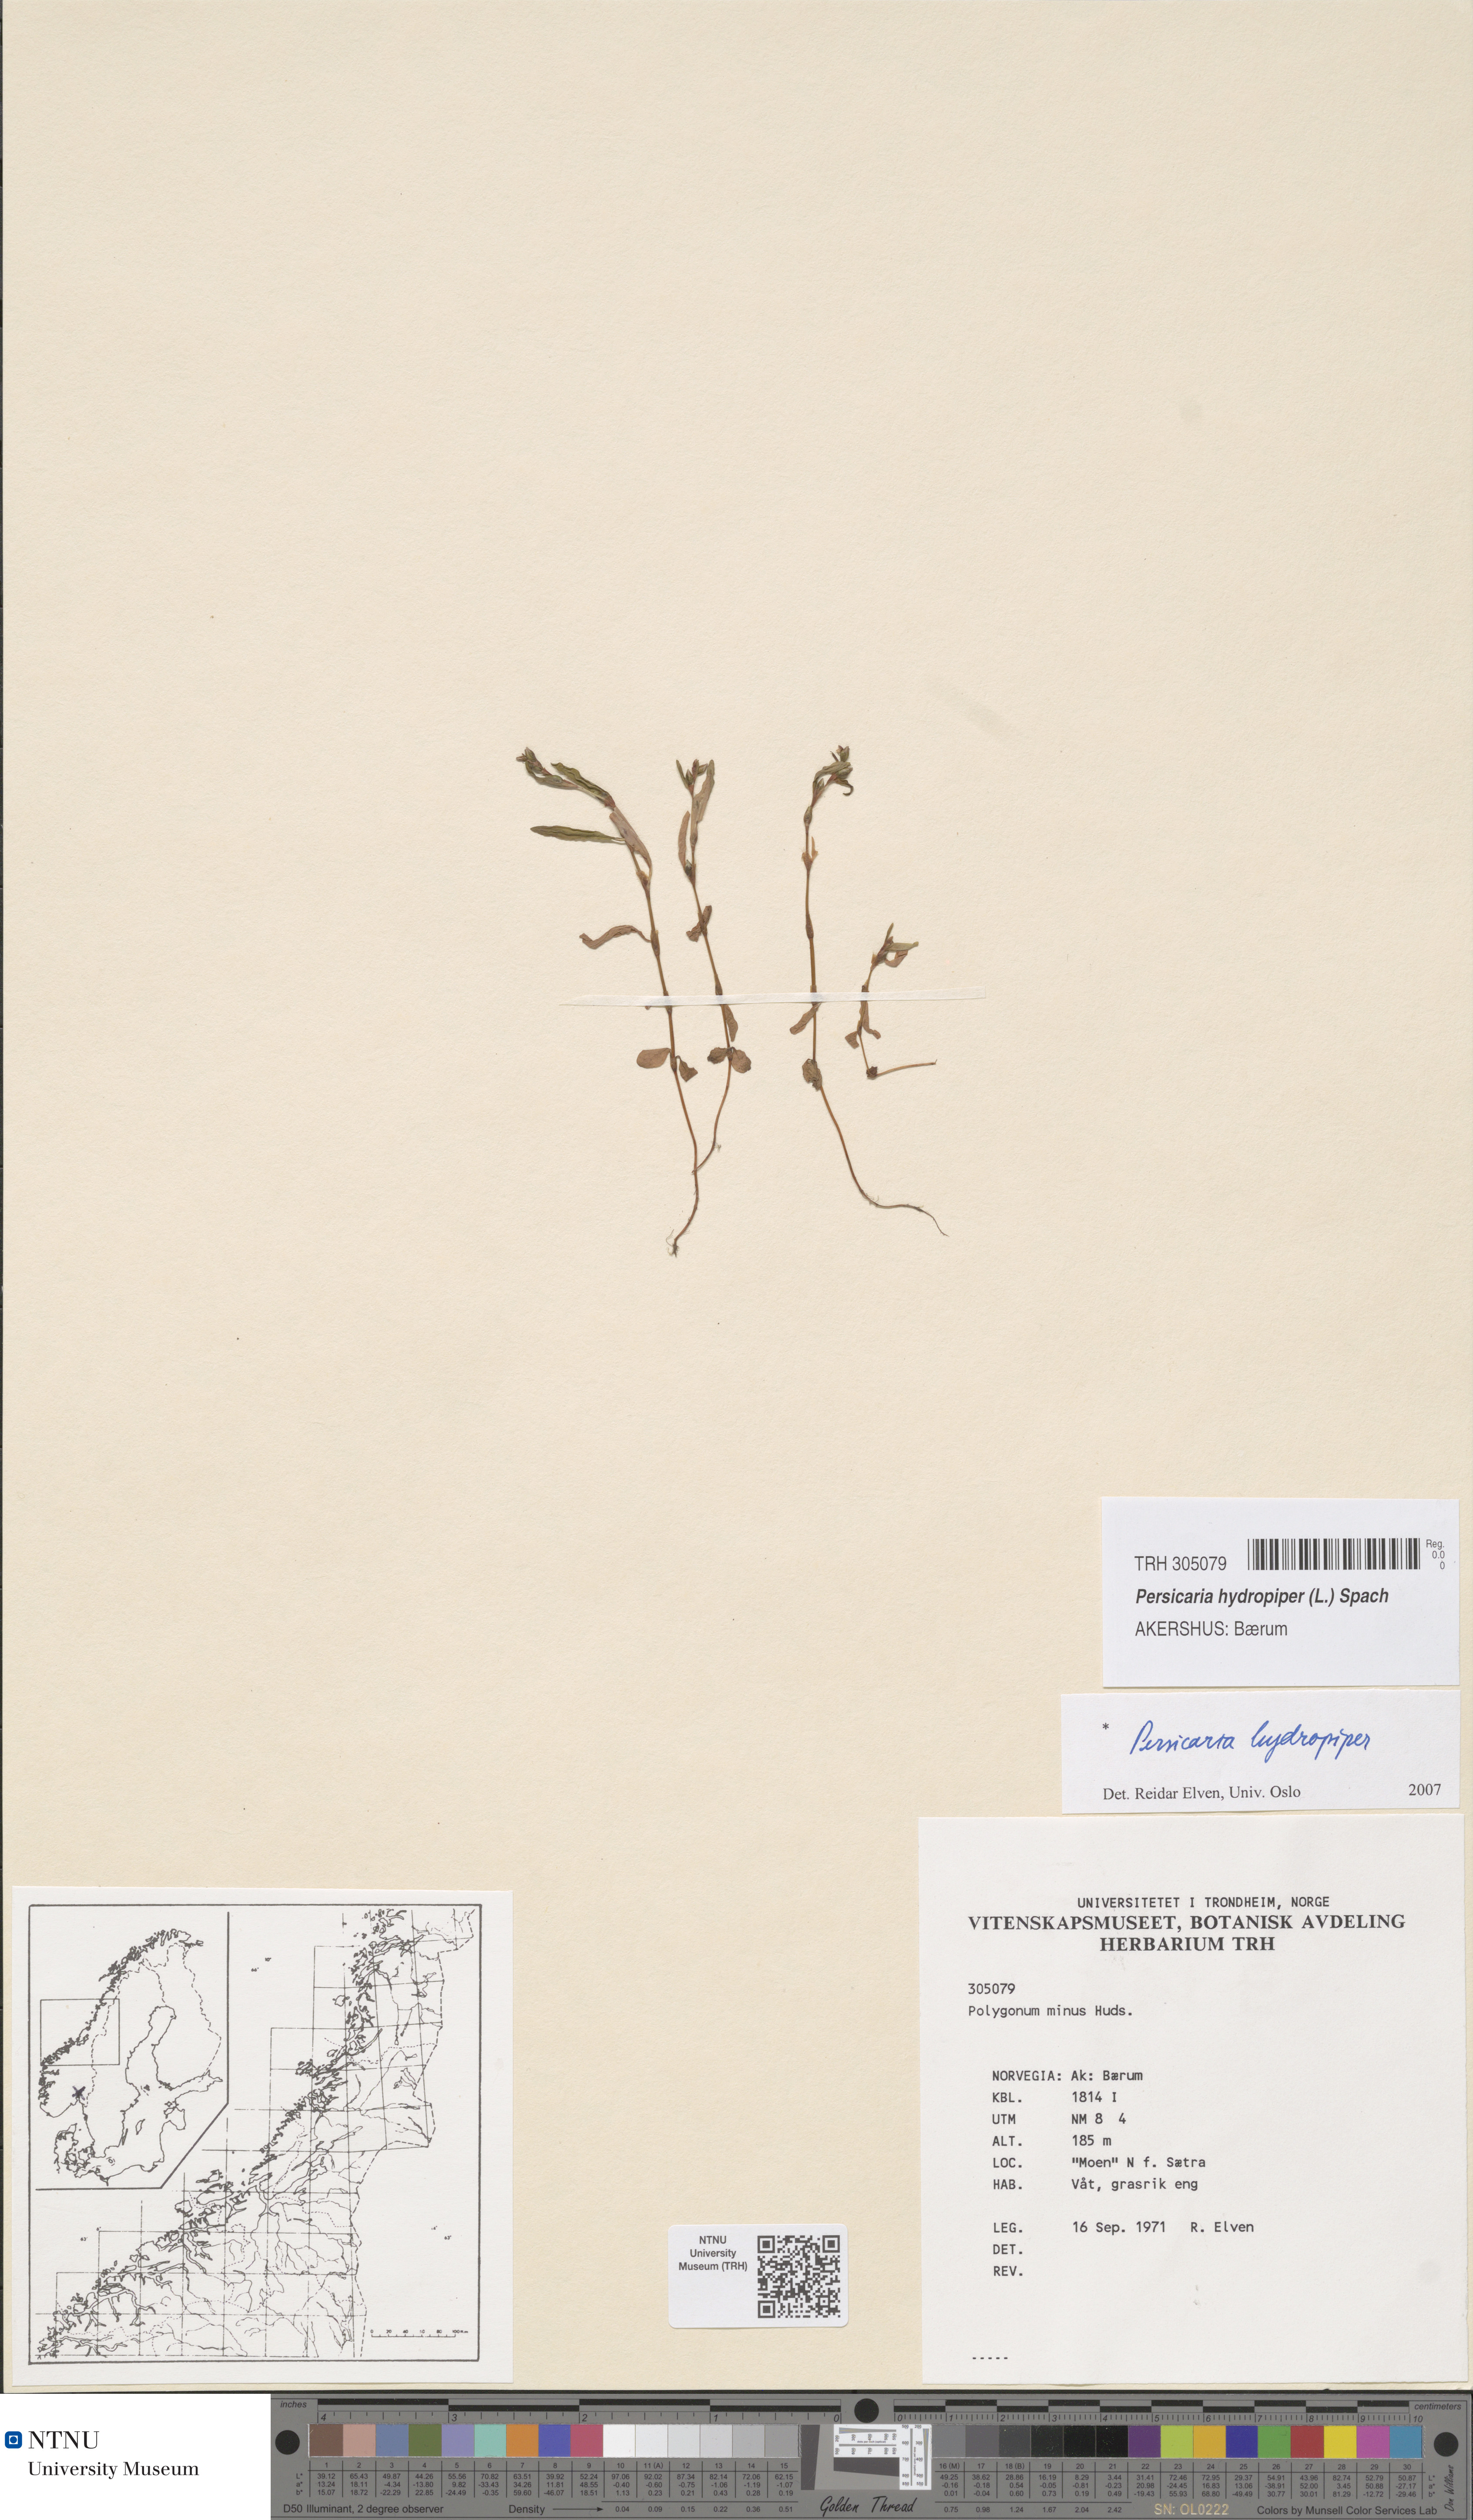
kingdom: Plantae
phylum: Tracheophyta
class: Magnoliopsida
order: Caryophyllales
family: Polygonaceae
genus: Persicaria
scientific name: Persicaria hydropiper
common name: Water-pepper
